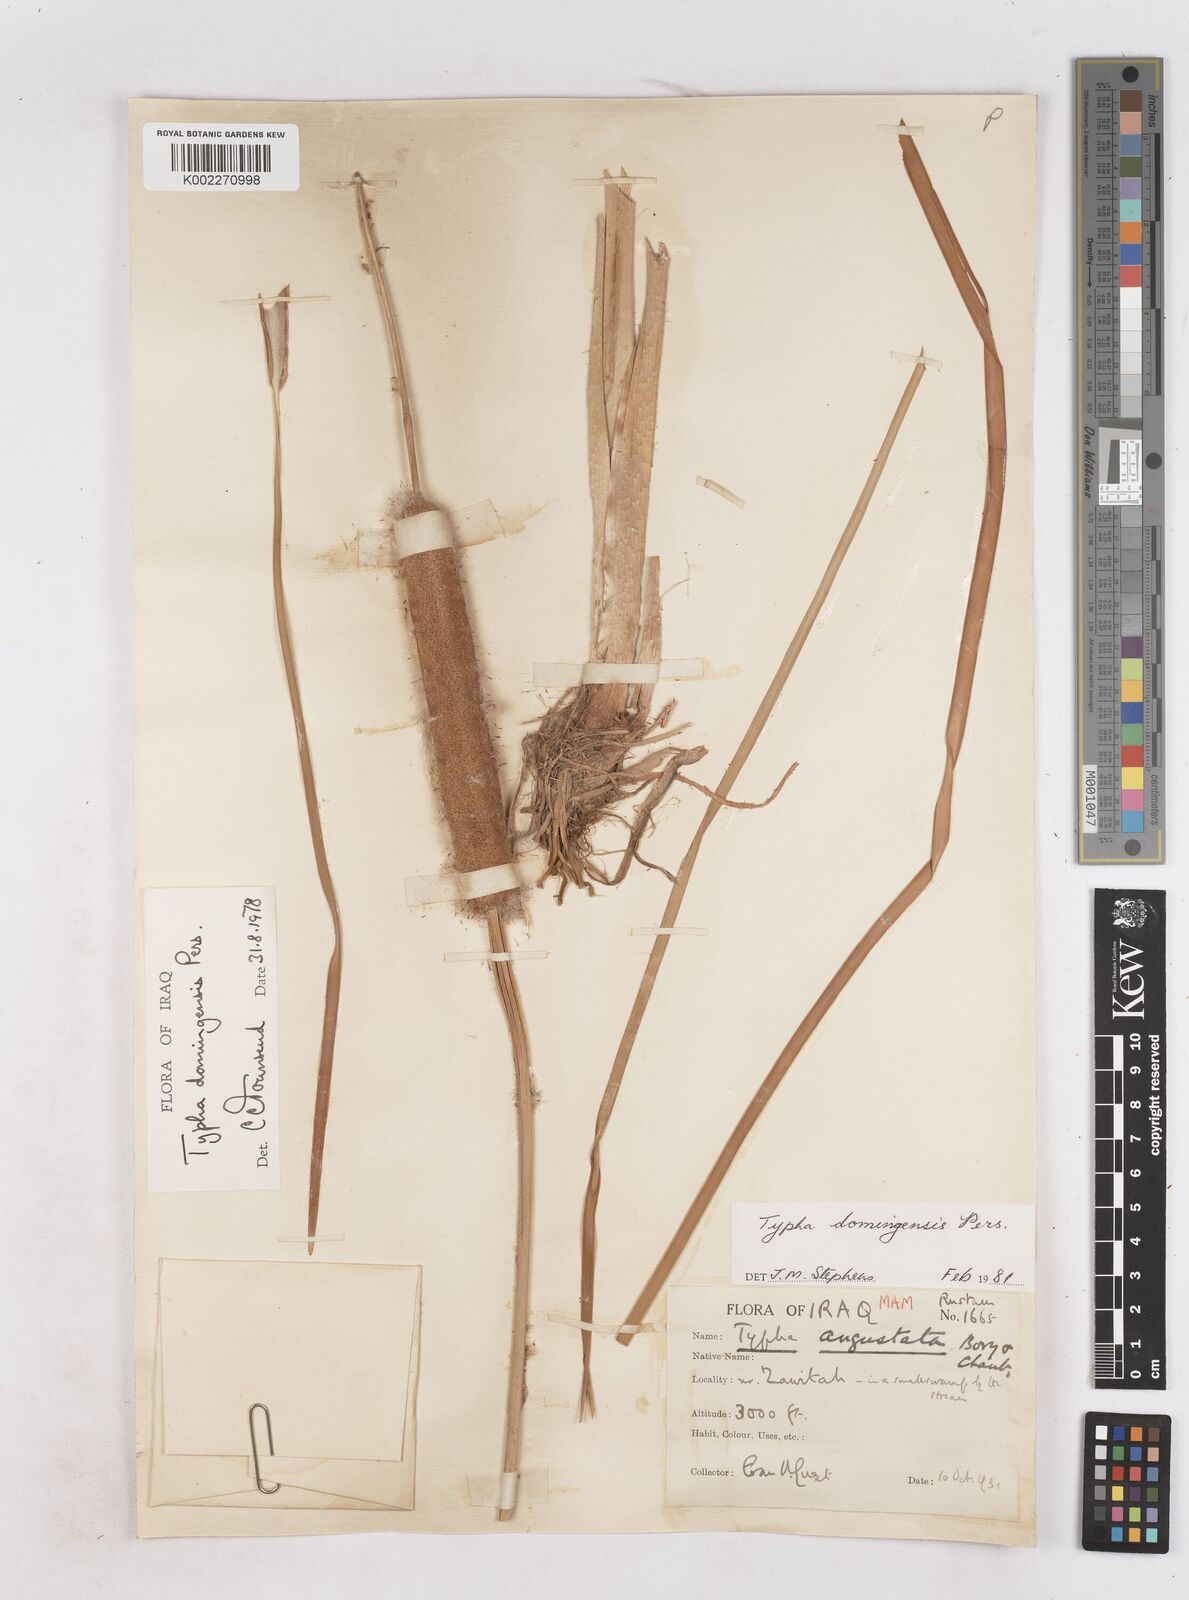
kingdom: Plantae
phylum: Tracheophyta
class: Liliopsida
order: Poales
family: Typhaceae
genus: Typha
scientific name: Typha domingensis
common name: Southern cattail
